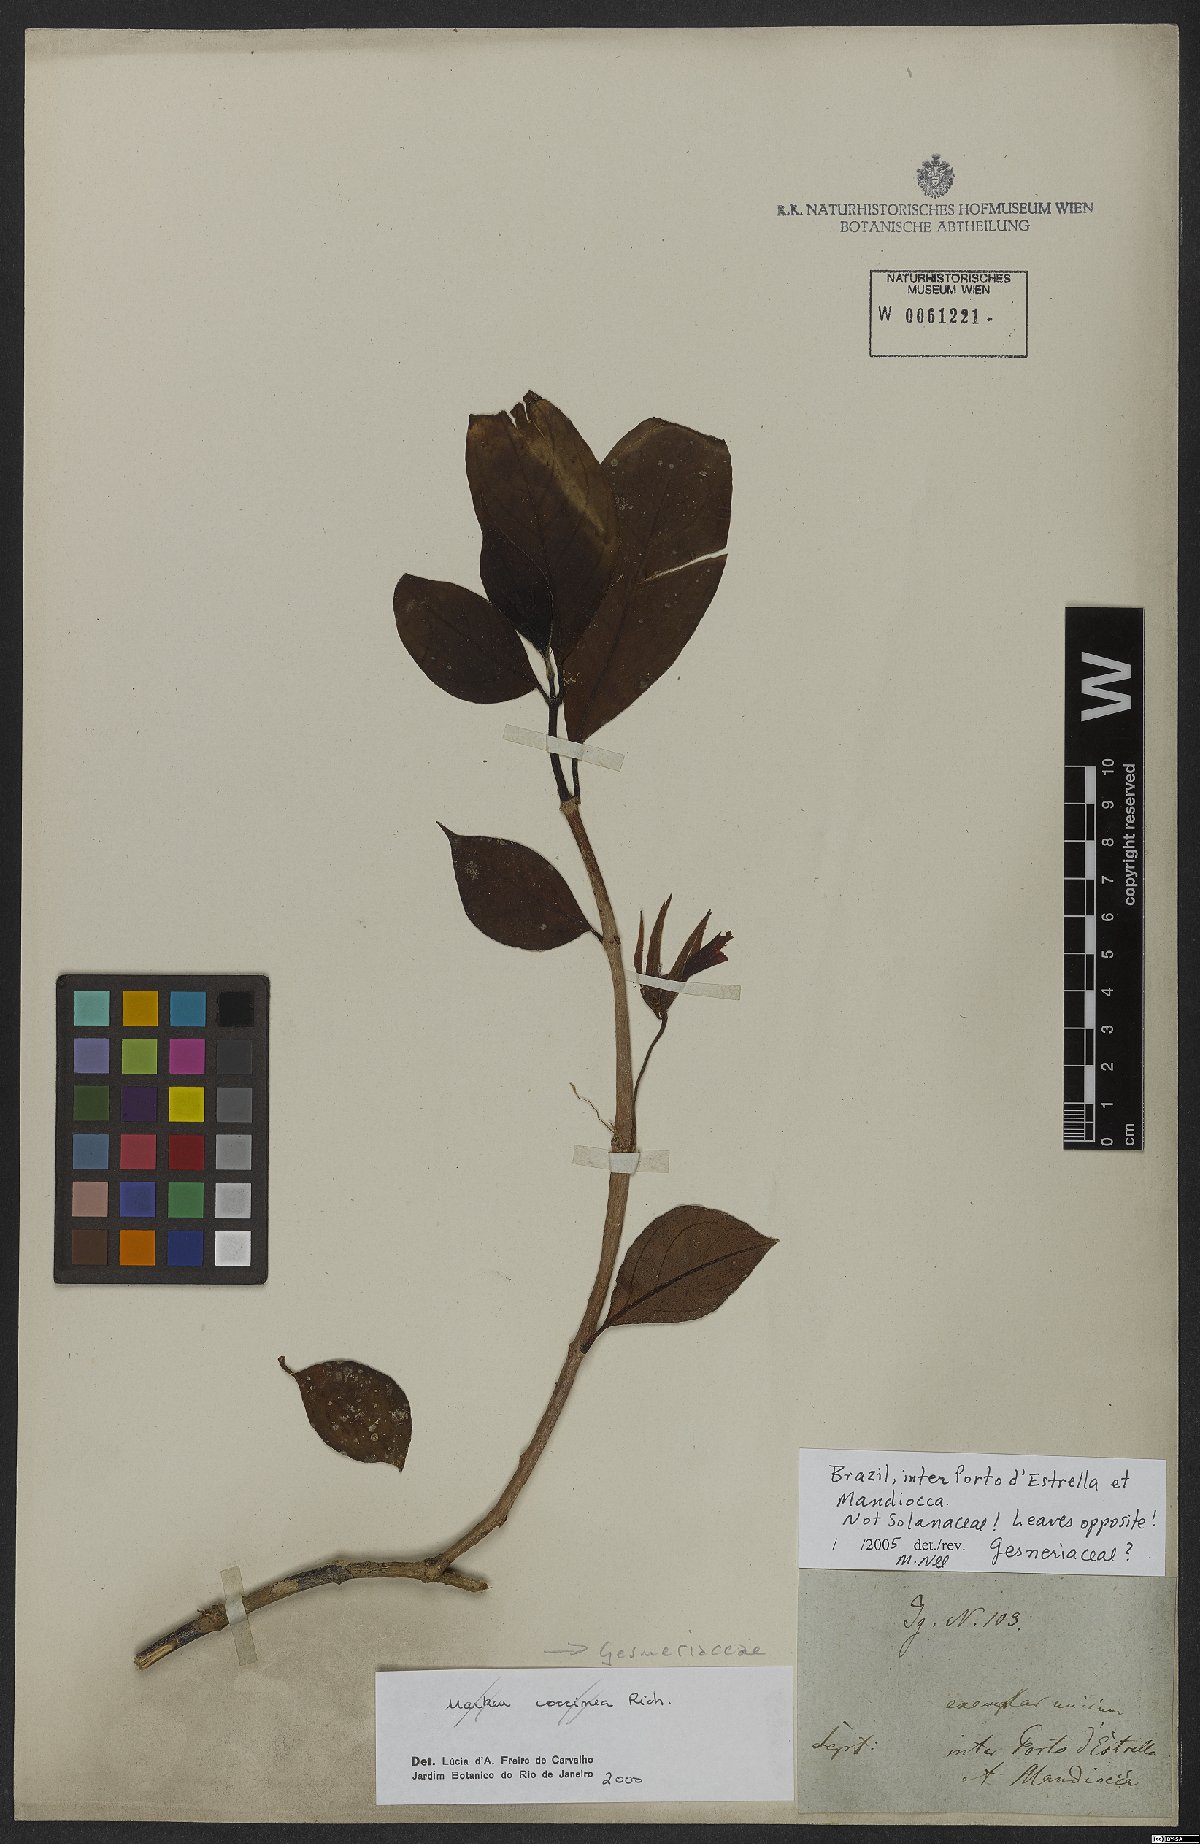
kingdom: Plantae
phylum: Tracheophyta
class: Magnoliopsida
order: Lamiales
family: Gesneriaceae
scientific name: Gesneriaceae
